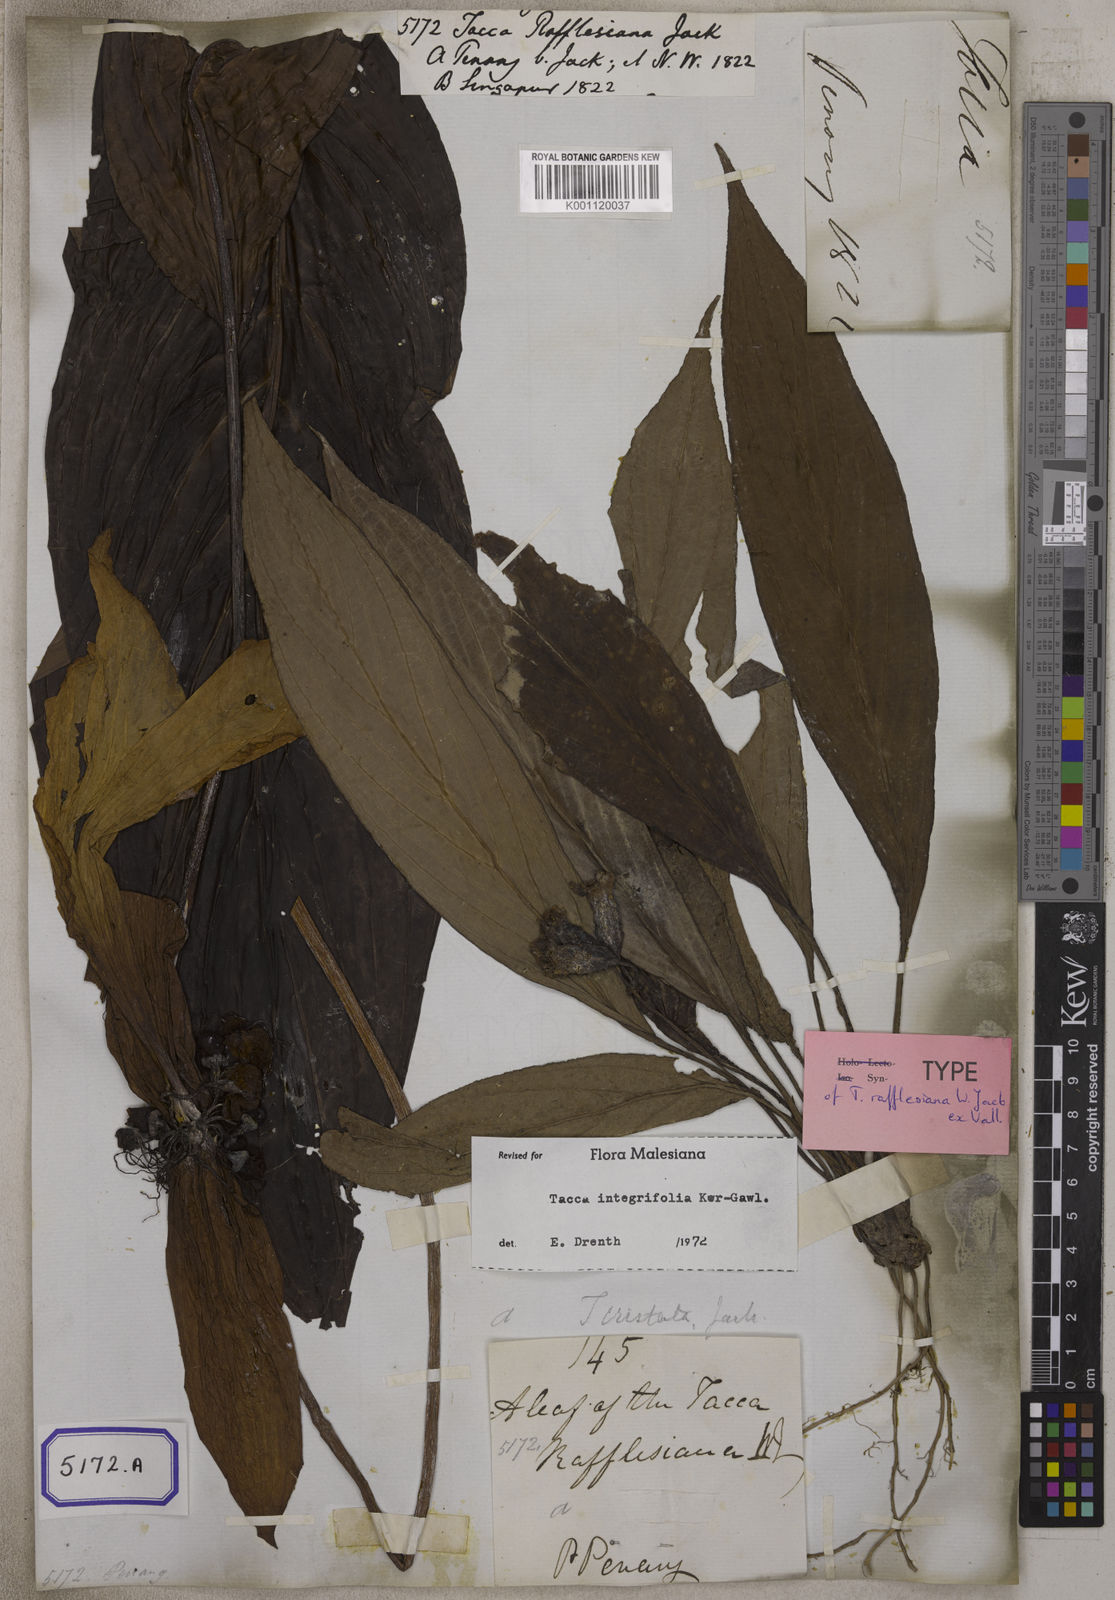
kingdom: Plantae
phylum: Tracheophyta
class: Liliopsida
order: Dioscoreales
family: Dioscoreaceae
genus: Tacca
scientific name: Tacca integrifolia
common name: Batplant
